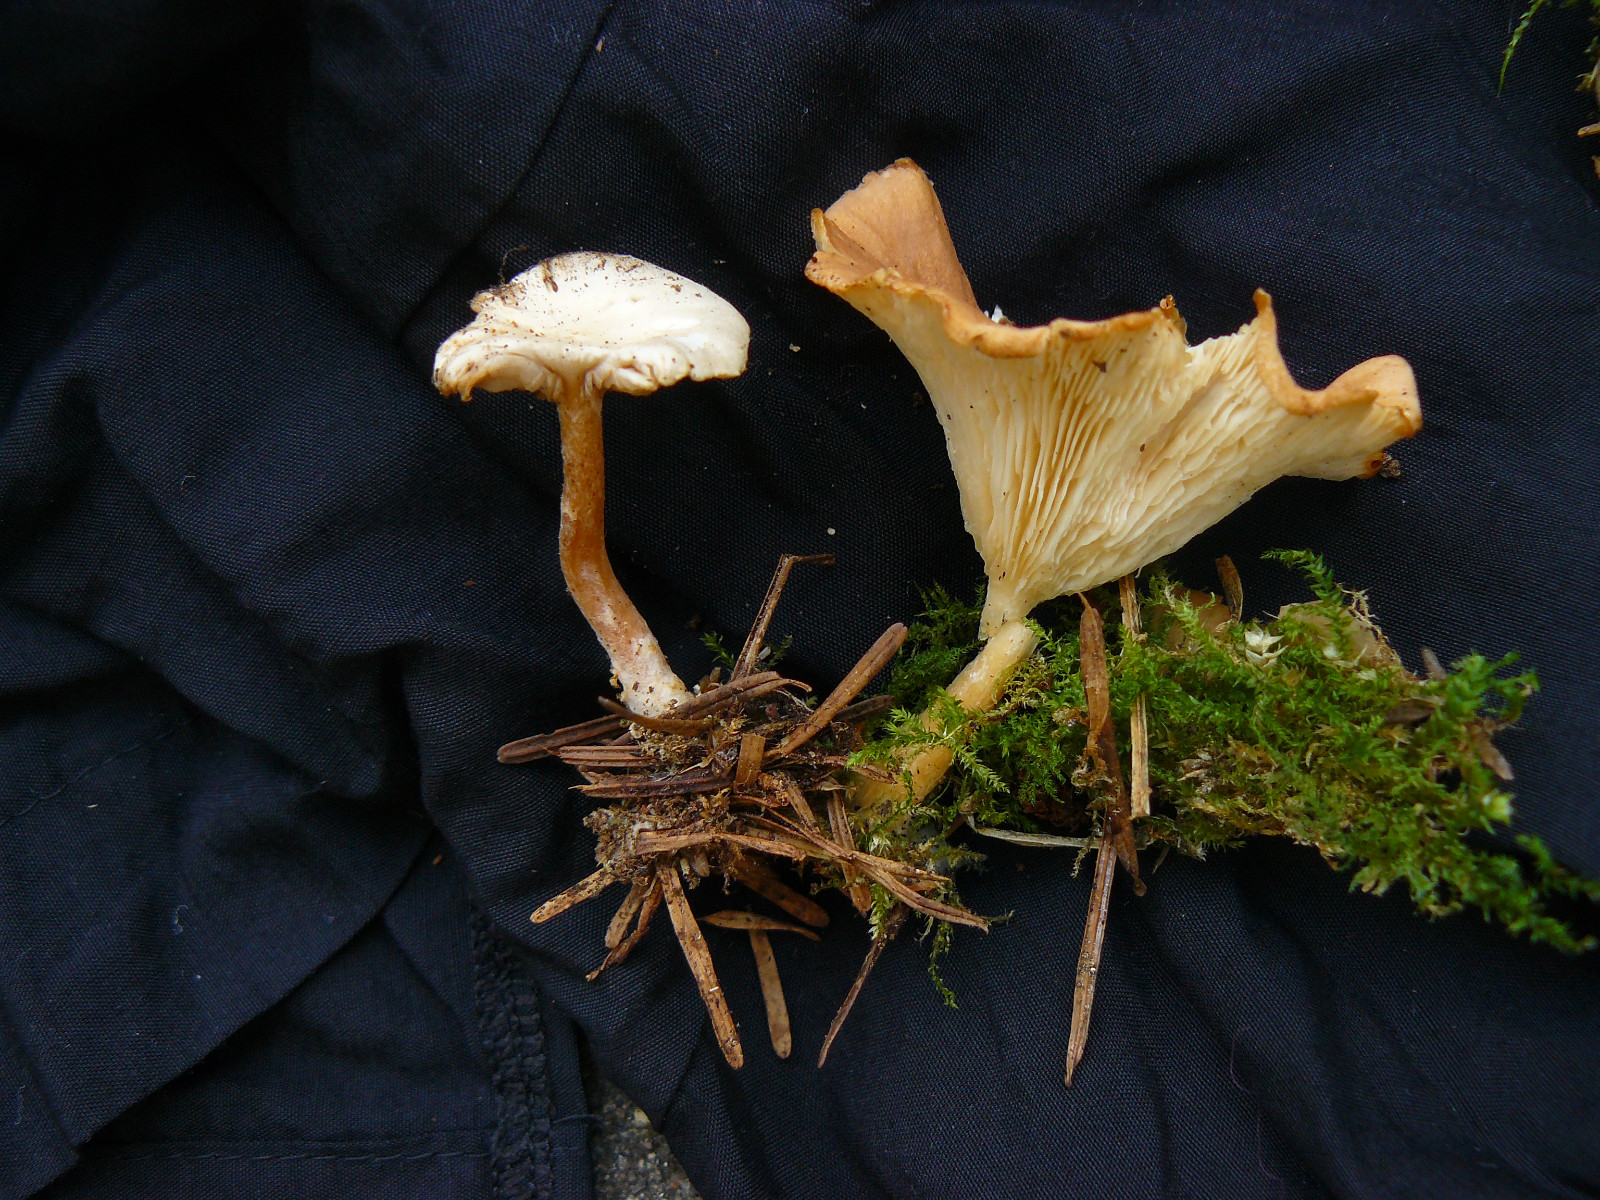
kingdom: Fungi
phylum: Basidiomycota
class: Agaricomycetes
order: Agaricales
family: Tricholomataceae
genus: Infundibulicybe
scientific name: Infundibulicybe gibba
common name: almindelig tragthat
